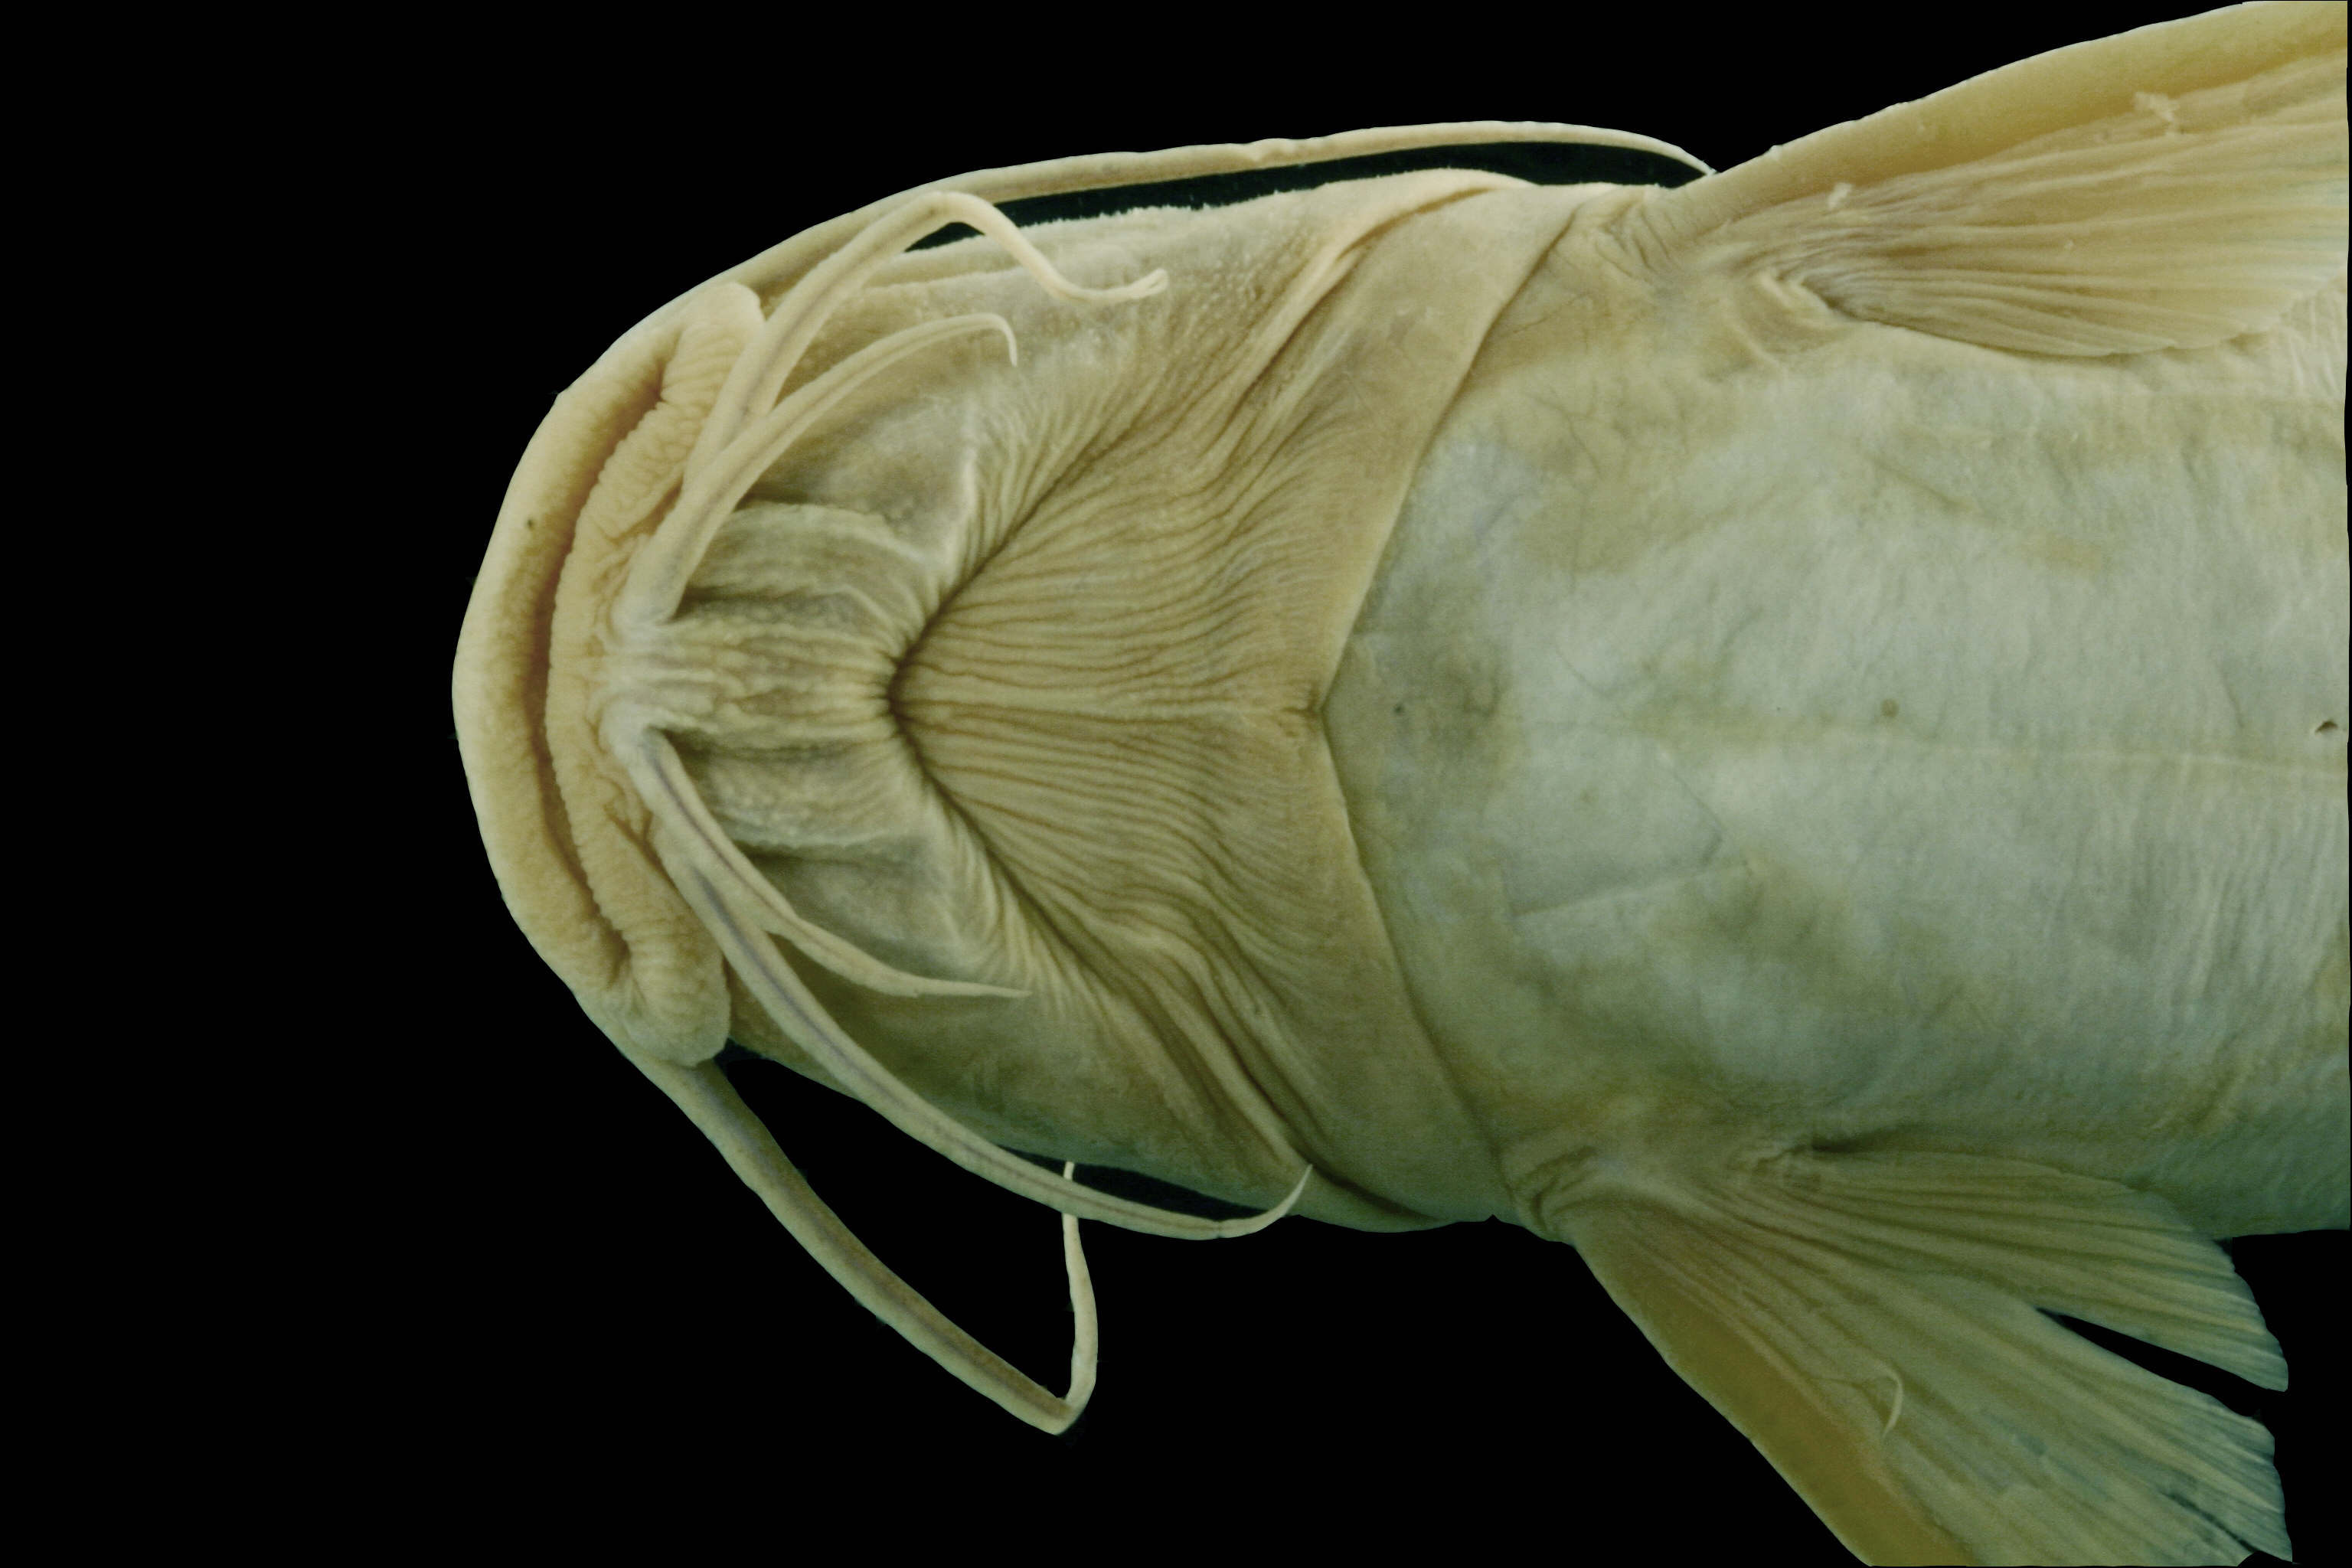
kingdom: Animalia
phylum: Chordata
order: Siluriformes
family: Ariidae
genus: Ariopsis
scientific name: Ariopsis felis
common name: Hardhead catfish
